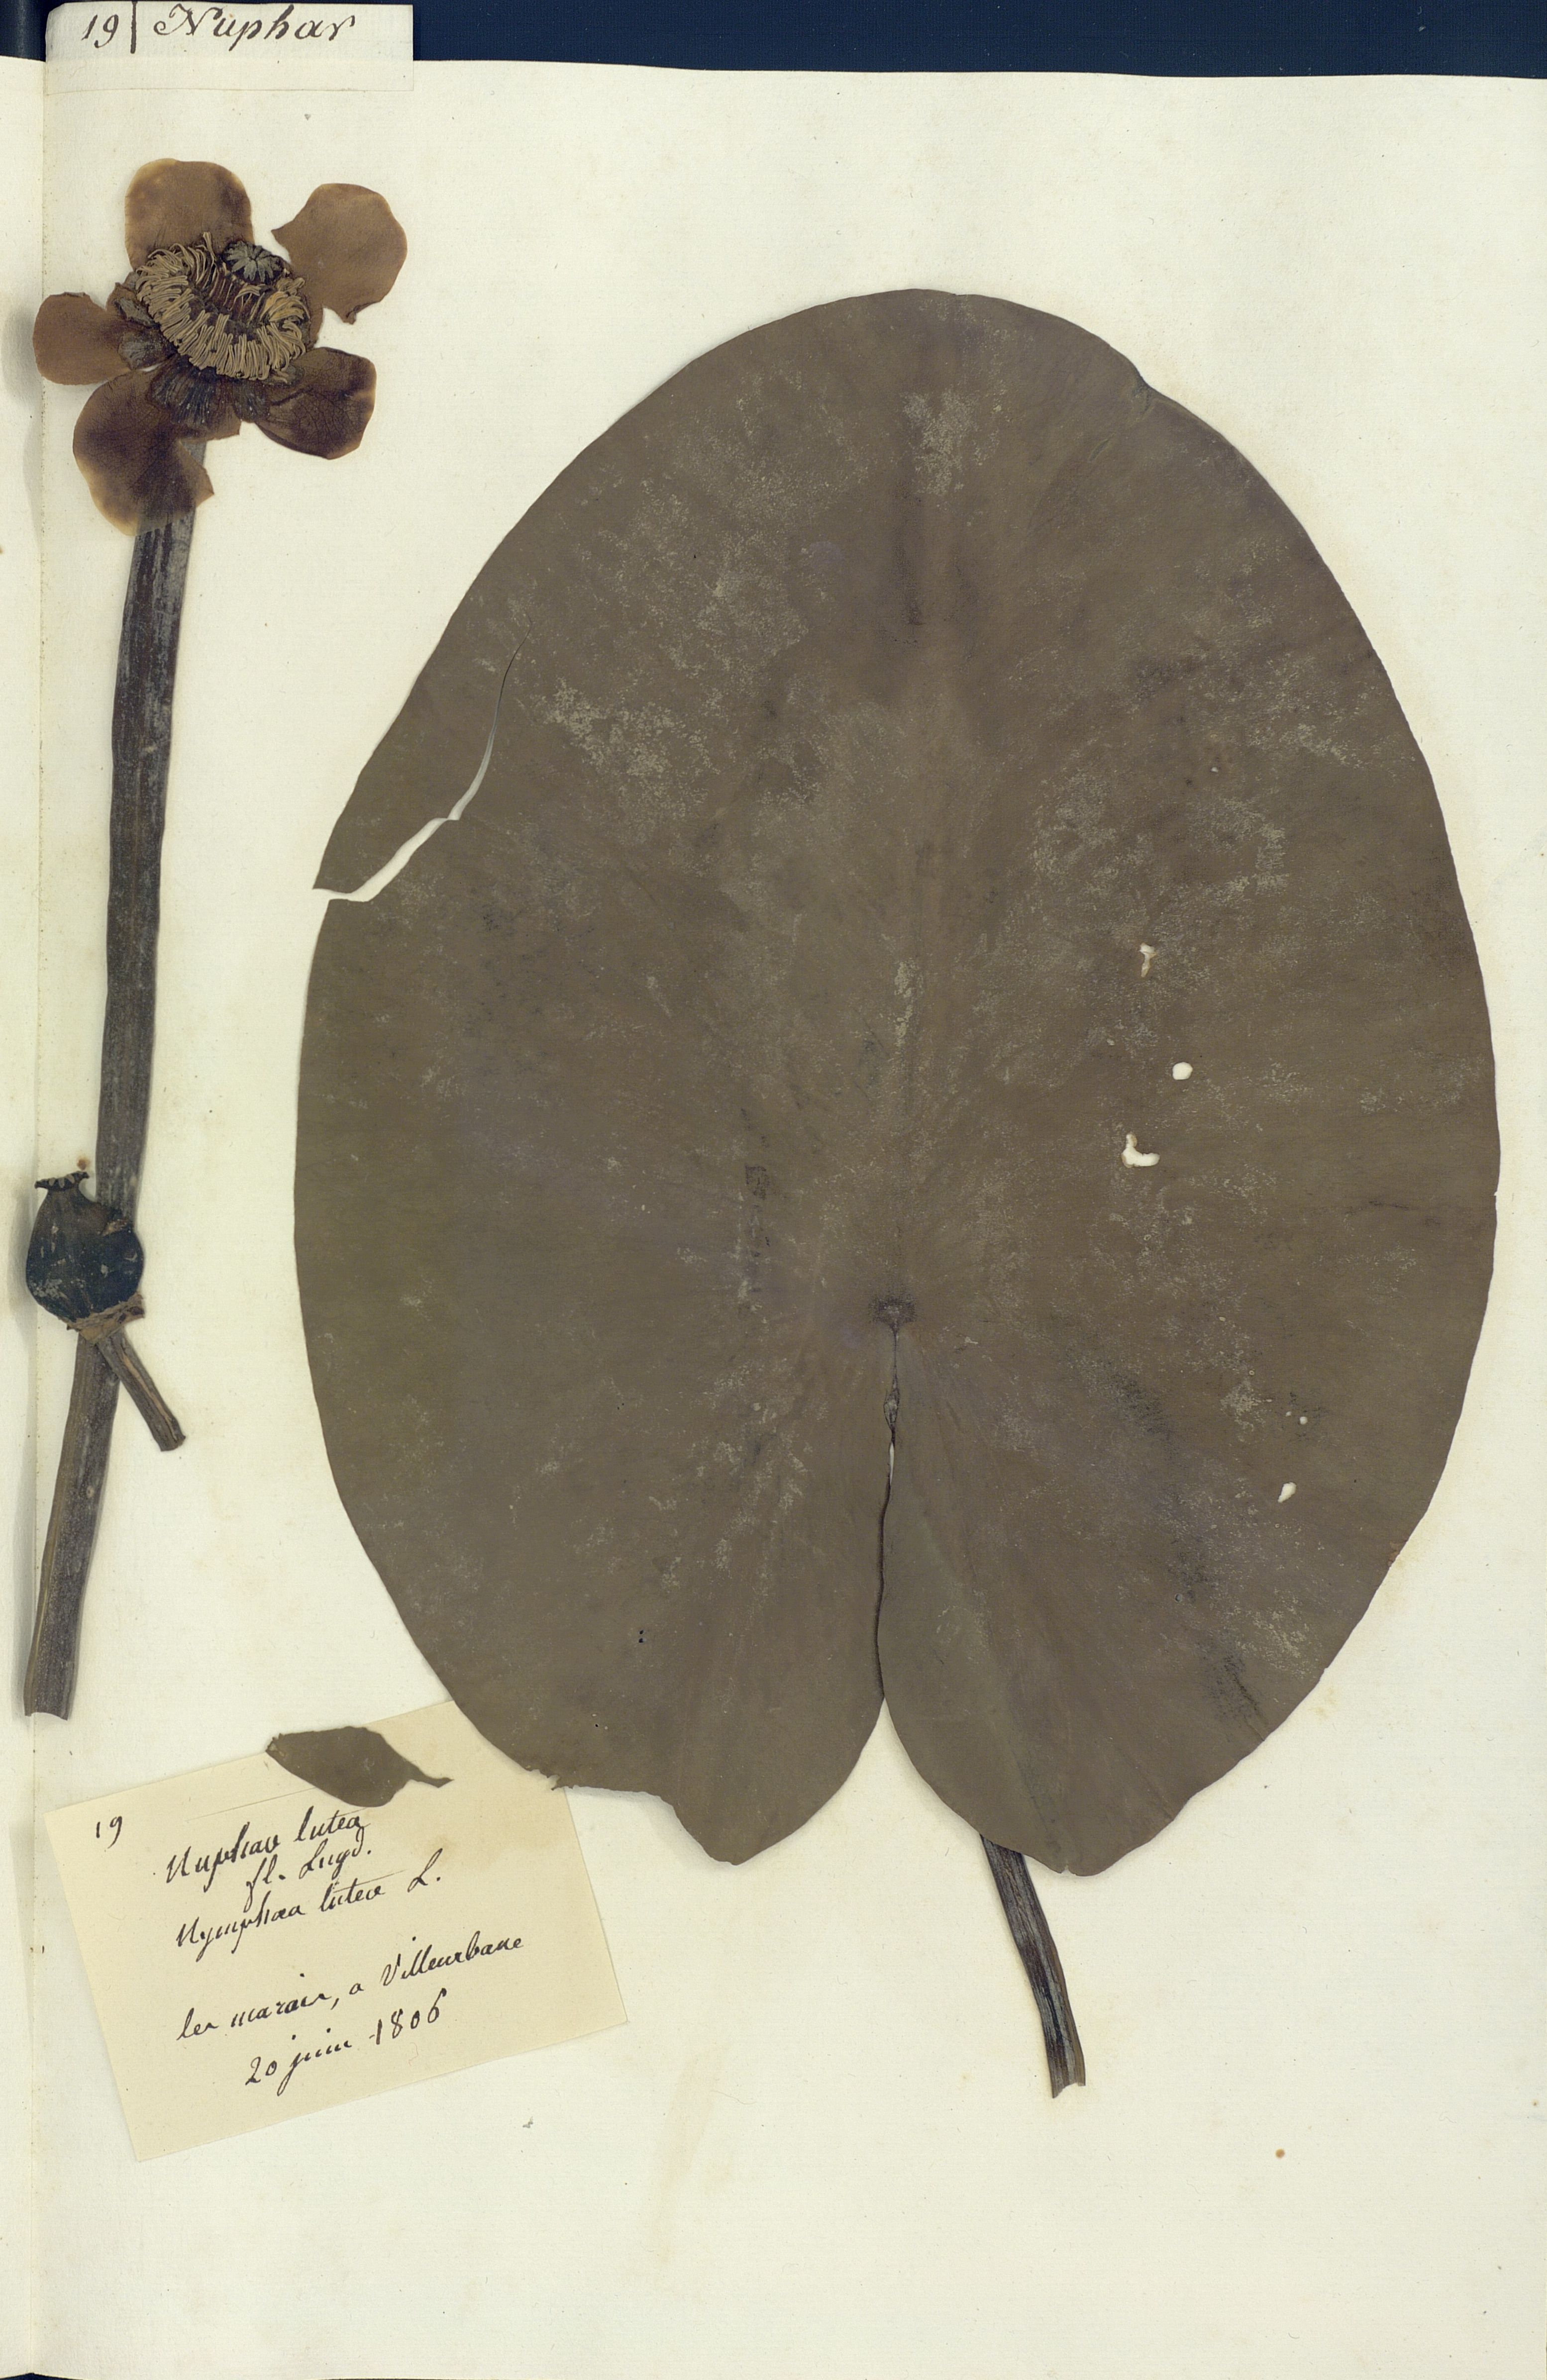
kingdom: Plantae
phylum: Tracheophyta
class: Magnoliopsida
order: Nymphaeales
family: Nymphaeaceae
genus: Nuphar
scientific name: Nuphar lutea
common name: Yellow water-lily
